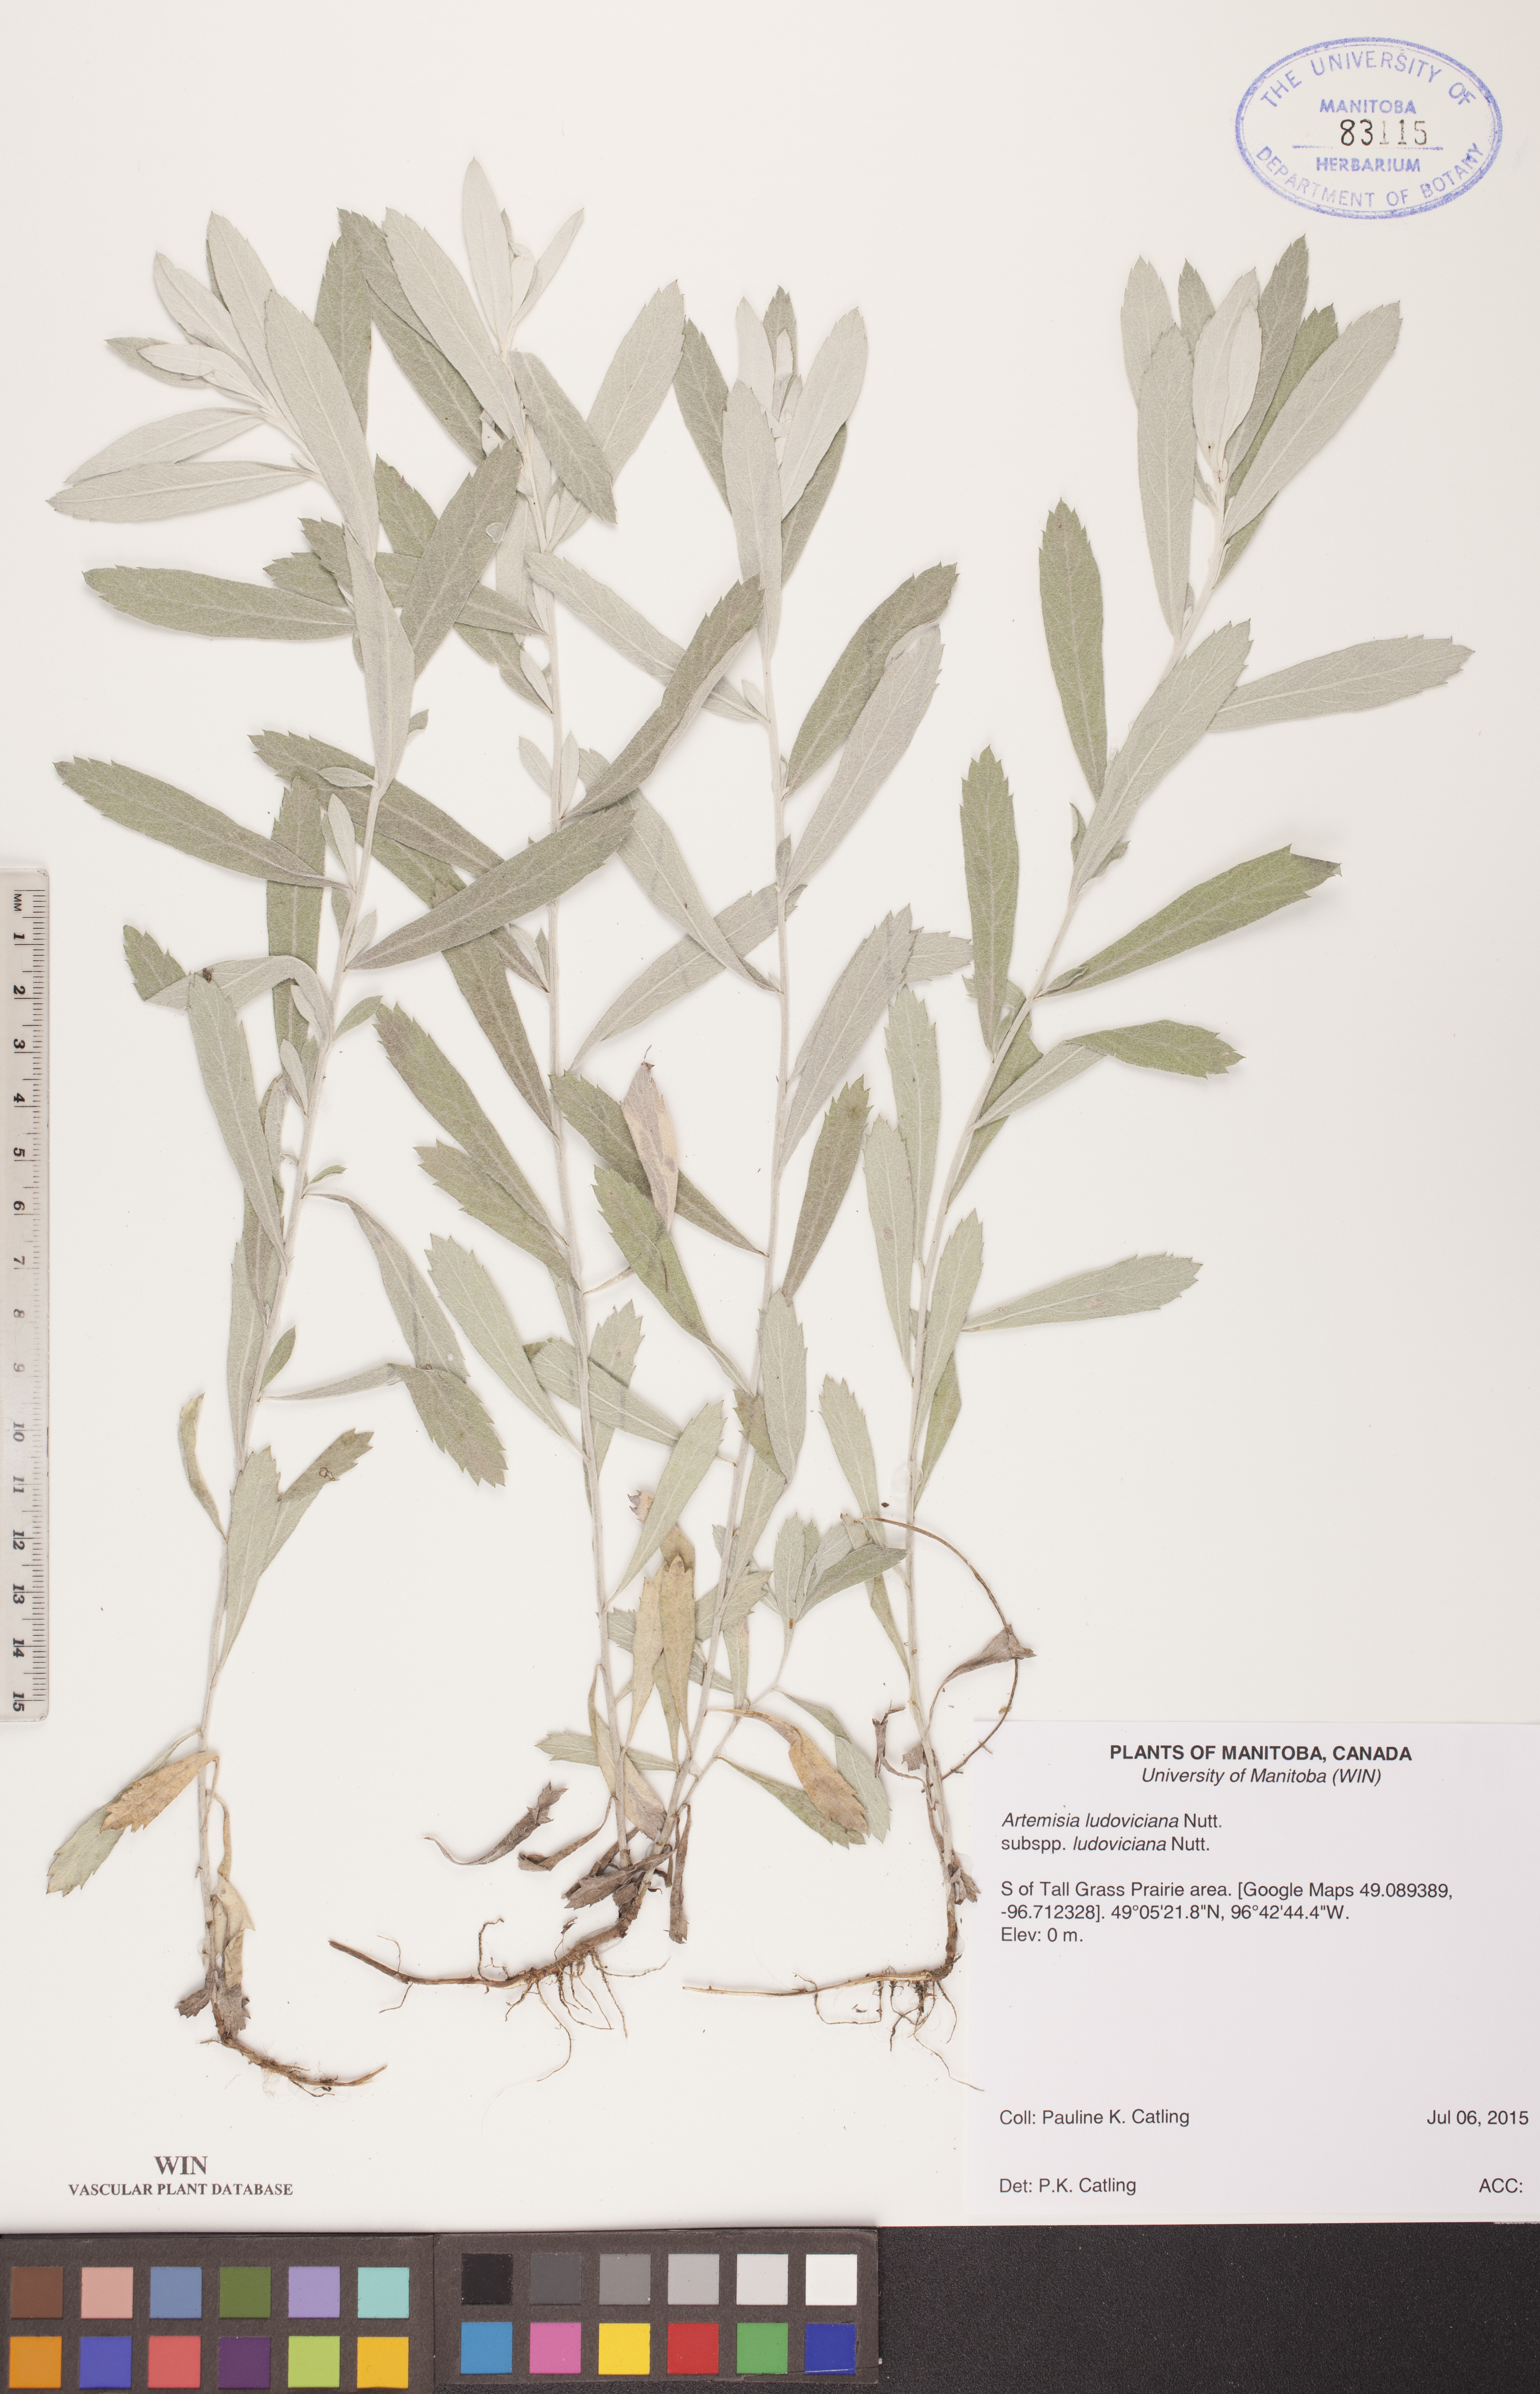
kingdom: Plantae
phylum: Tracheophyta
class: Magnoliopsida
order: Asterales
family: Asteraceae
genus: Artemisia
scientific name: Artemisia ludoviciana
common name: Western mugwort
